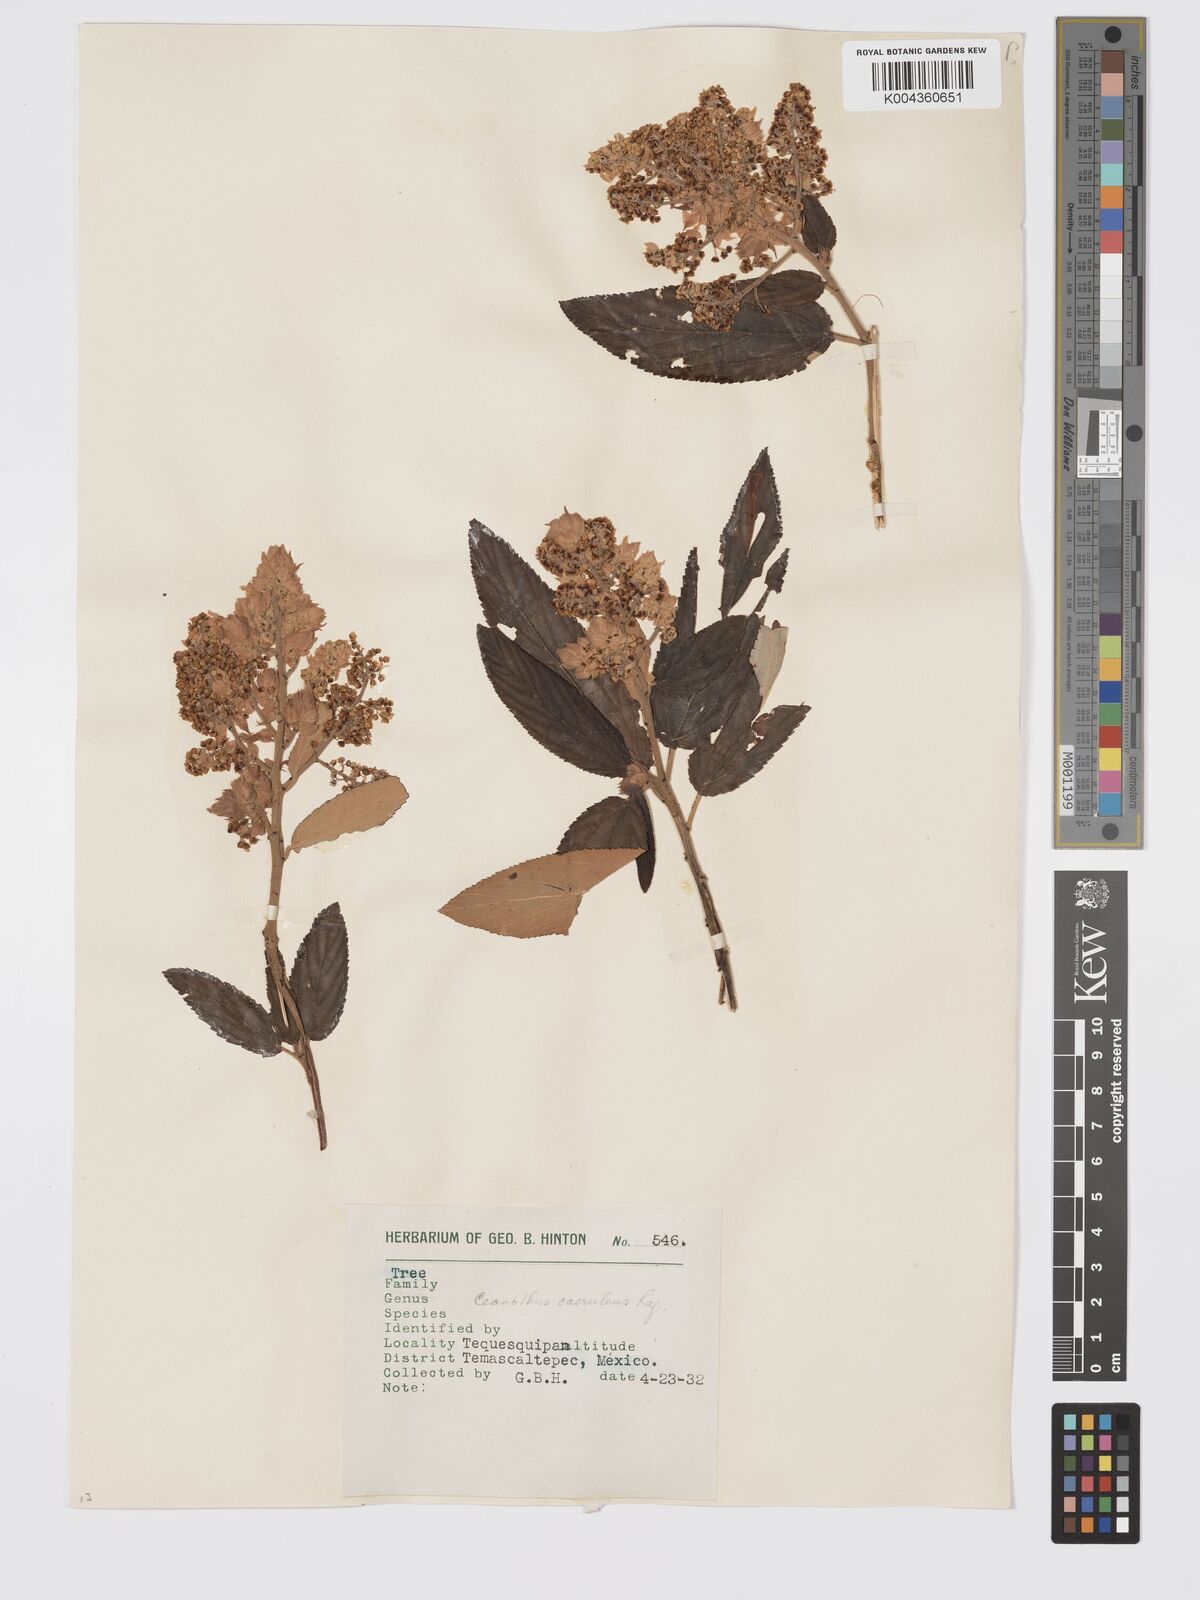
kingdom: Plantae
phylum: Tracheophyta
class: Magnoliopsida
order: Rosales
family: Rhamnaceae
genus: Ceanothus
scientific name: Ceanothus caeruleus
